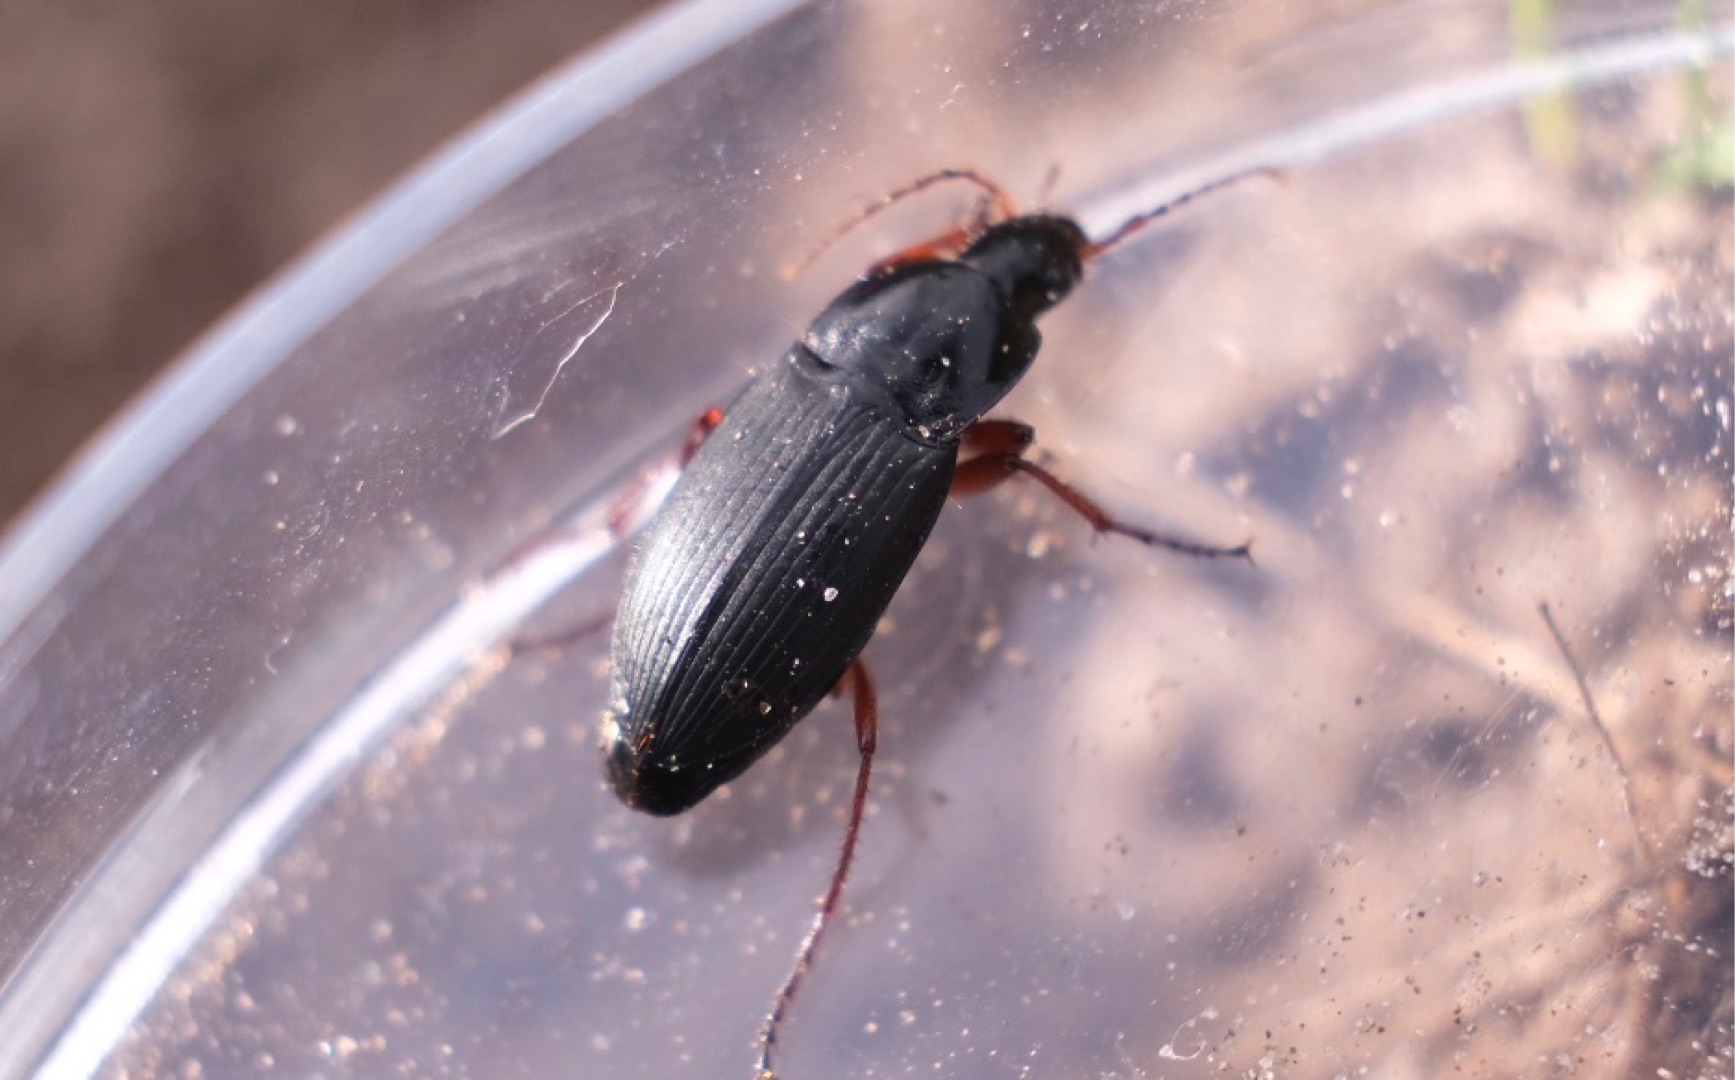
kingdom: Animalia
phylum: Arthropoda
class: Insecta
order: Coleoptera
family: Carabidae
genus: Calathus
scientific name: Calathus fuscipes
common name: Stor torpedoløber
